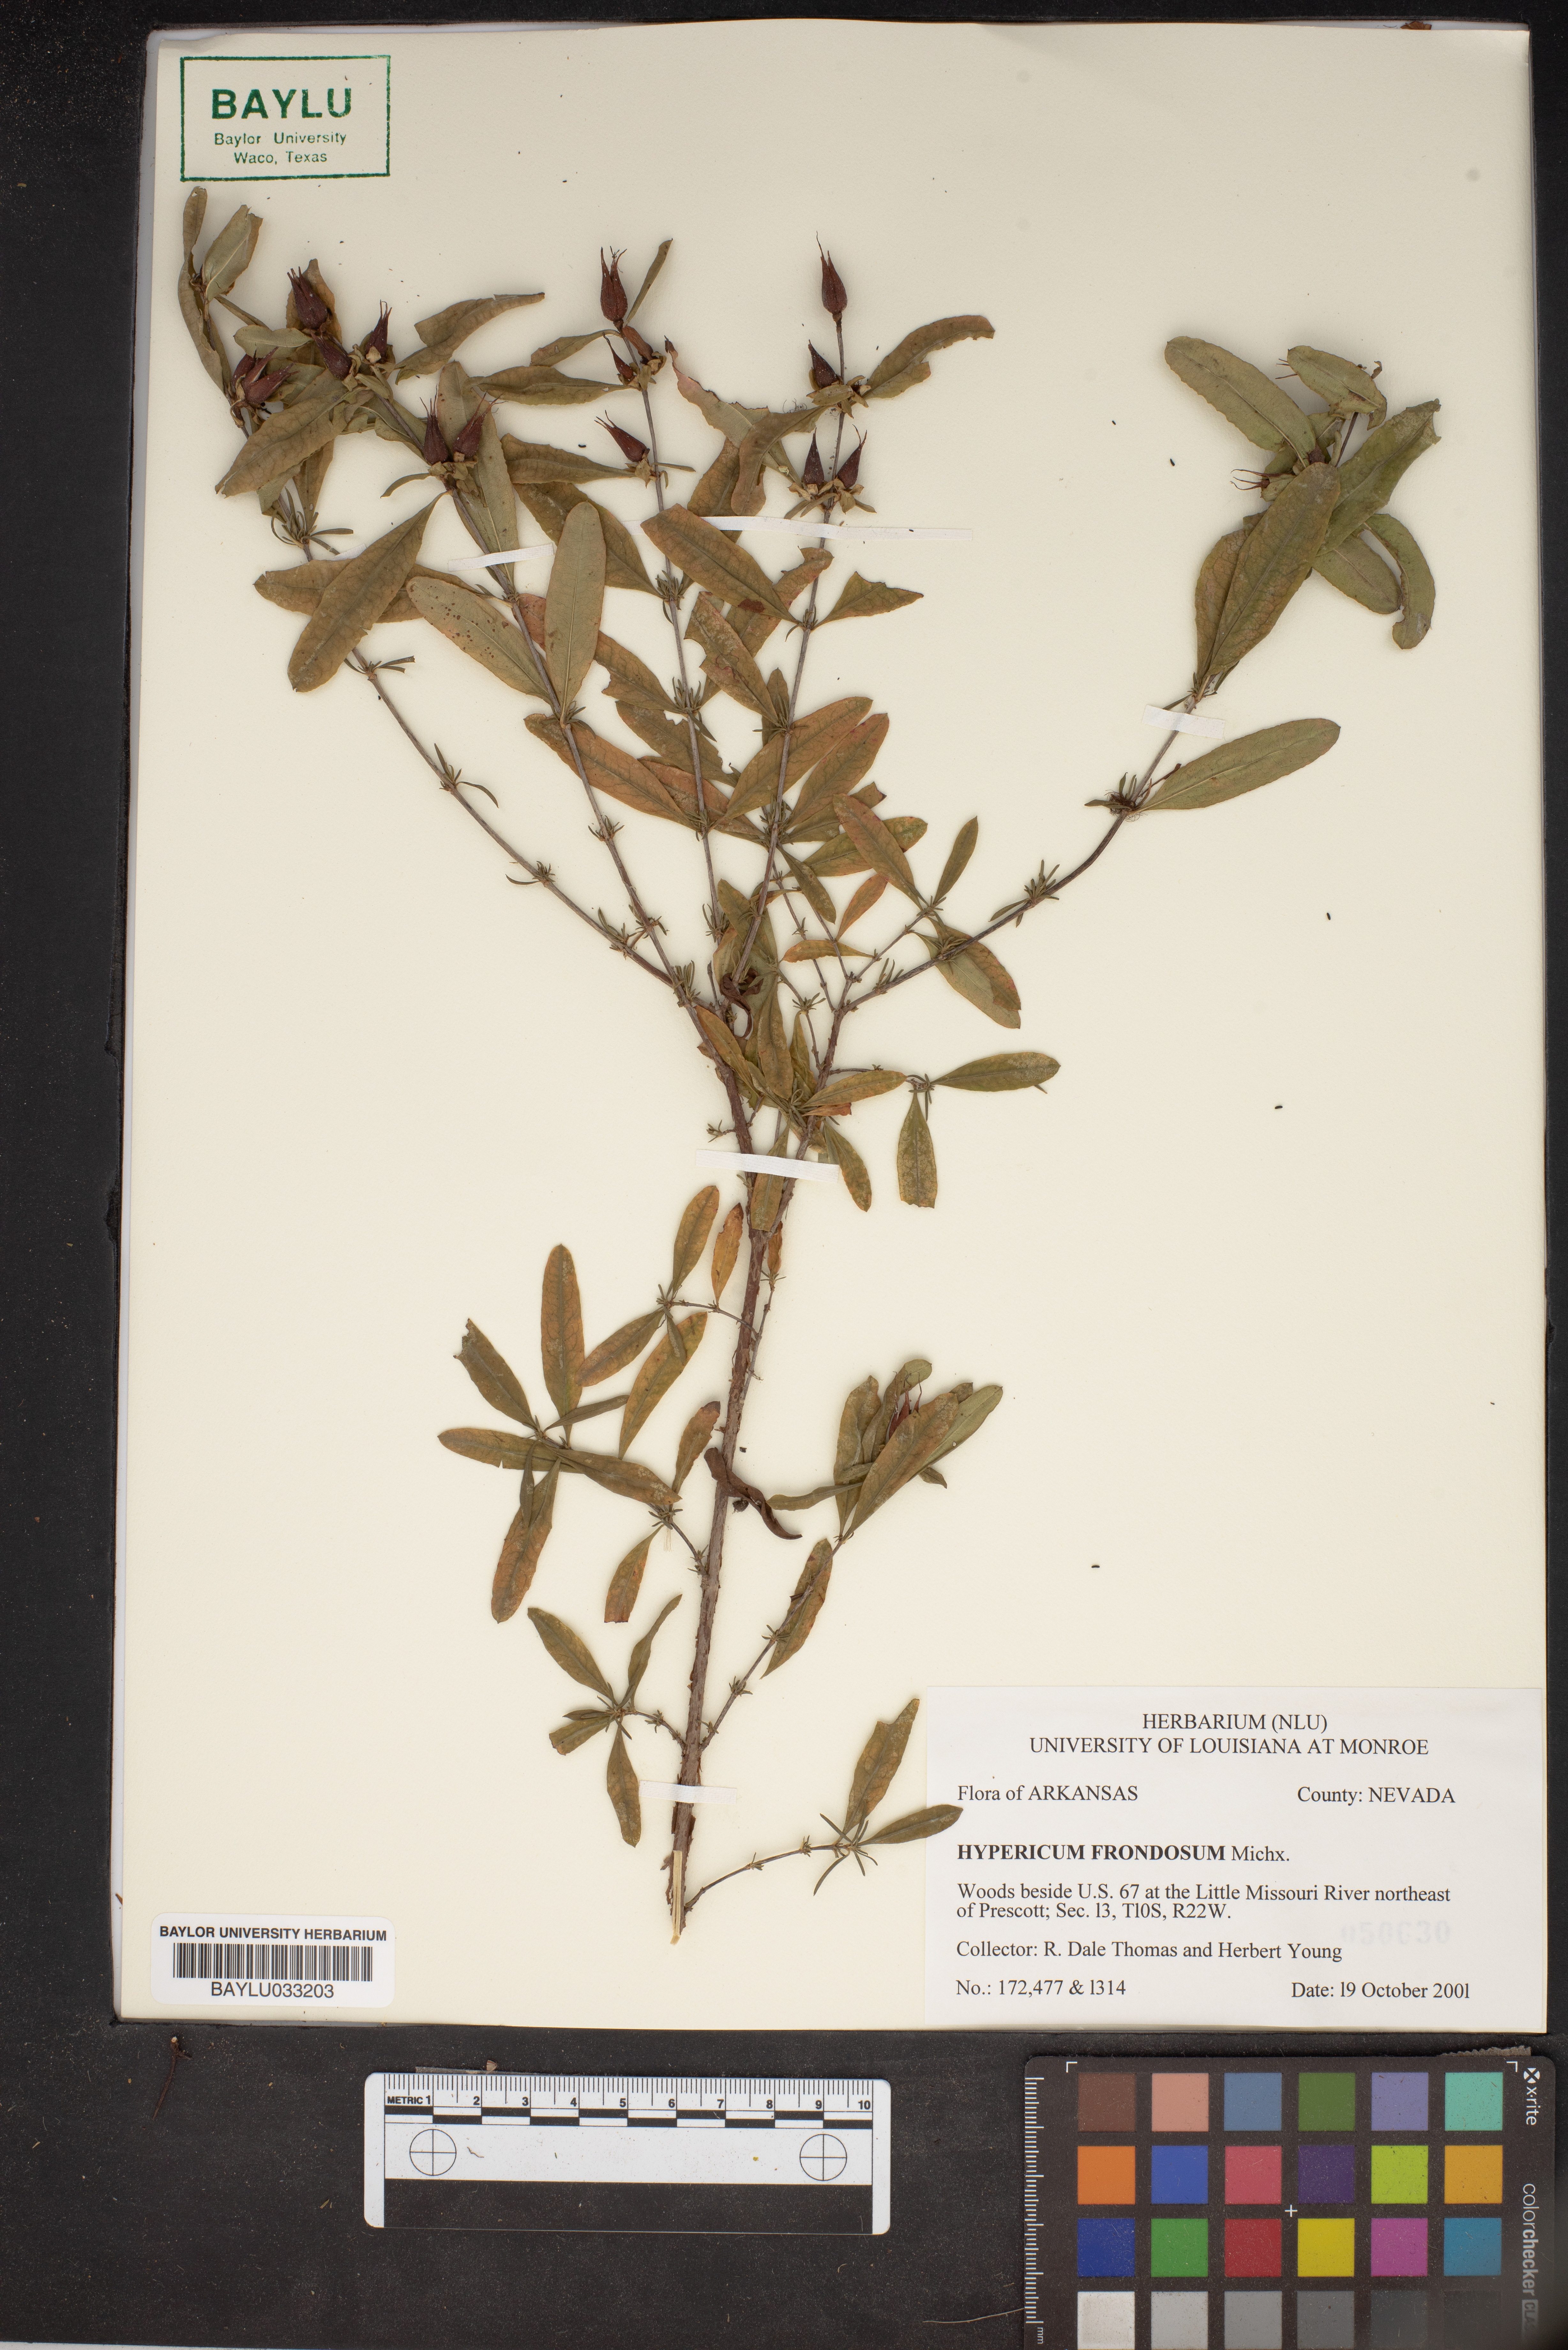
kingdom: Plantae
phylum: Tracheophyta
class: Magnoliopsida
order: Malpighiales
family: Hypericaceae
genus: Hypericum
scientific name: Hypericum frondosum
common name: Golden st. john's-wort
